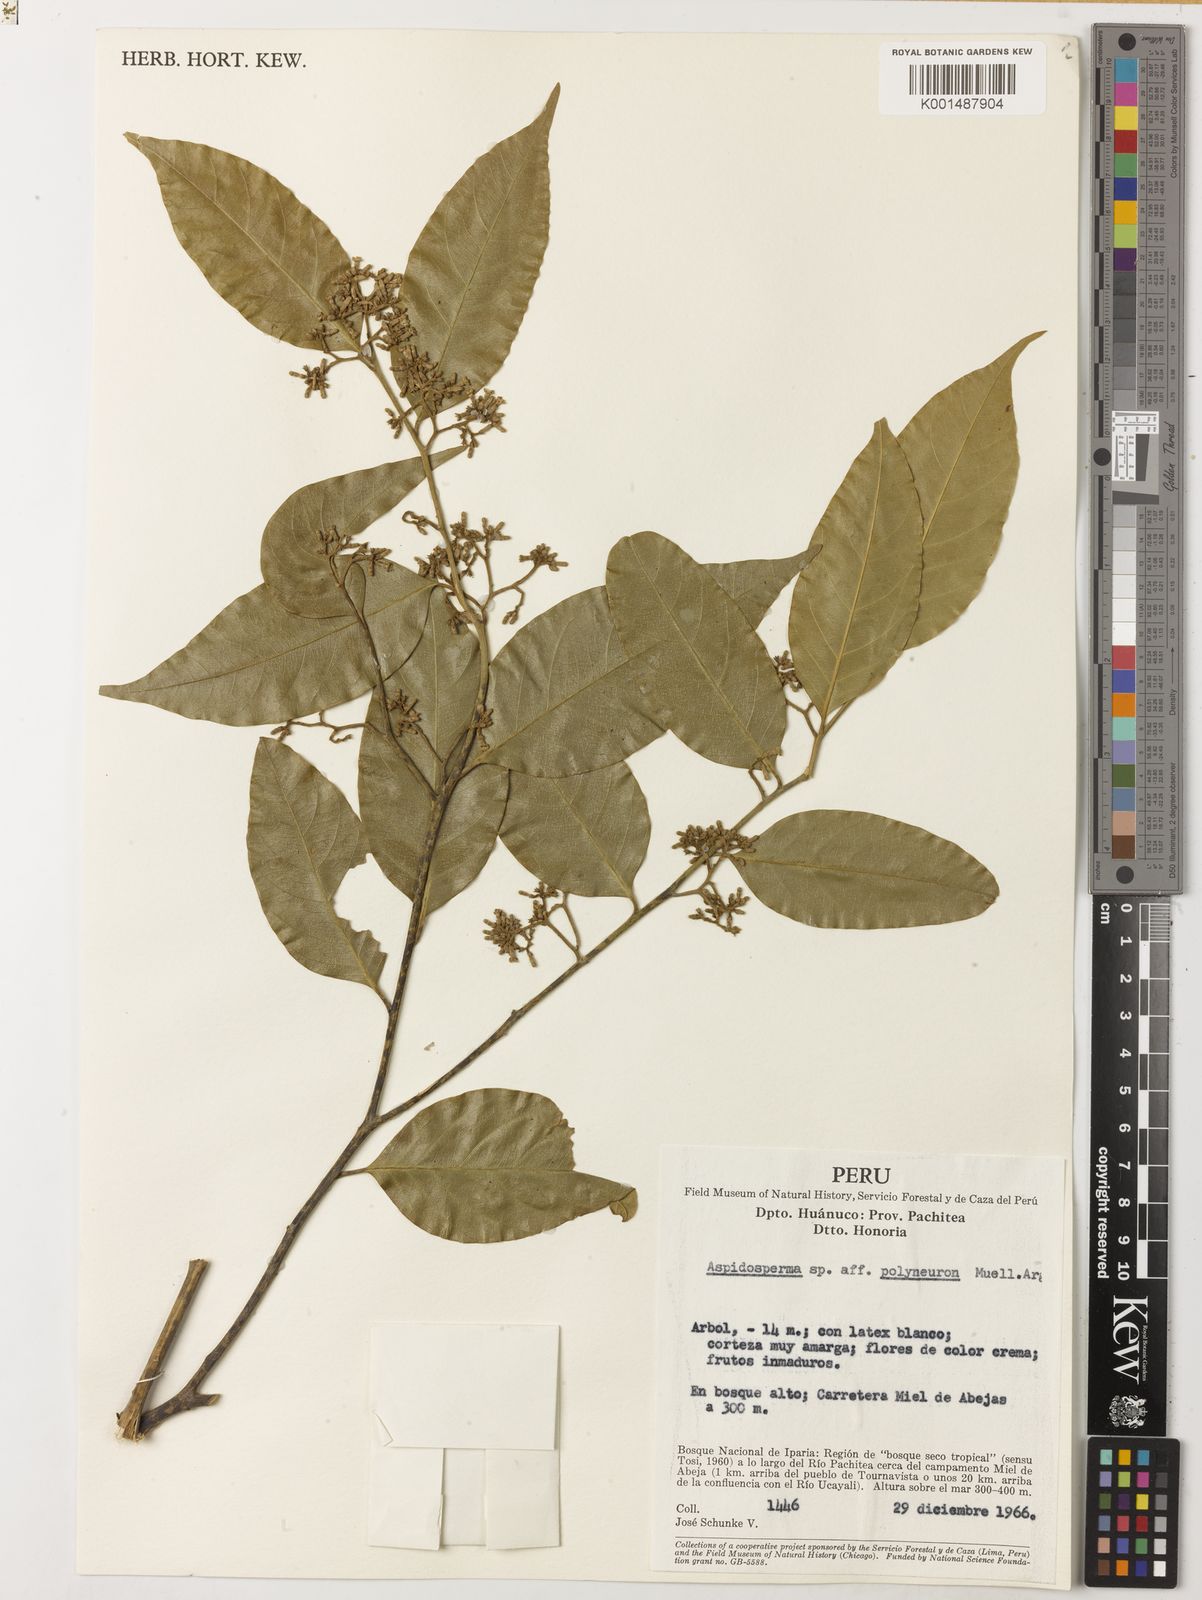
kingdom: Plantae
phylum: Tracheophyta
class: Magnoliopsida
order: Gentianales
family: Apocynaceae
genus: Aspidosperma
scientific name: Aspidosperma polyneuron
